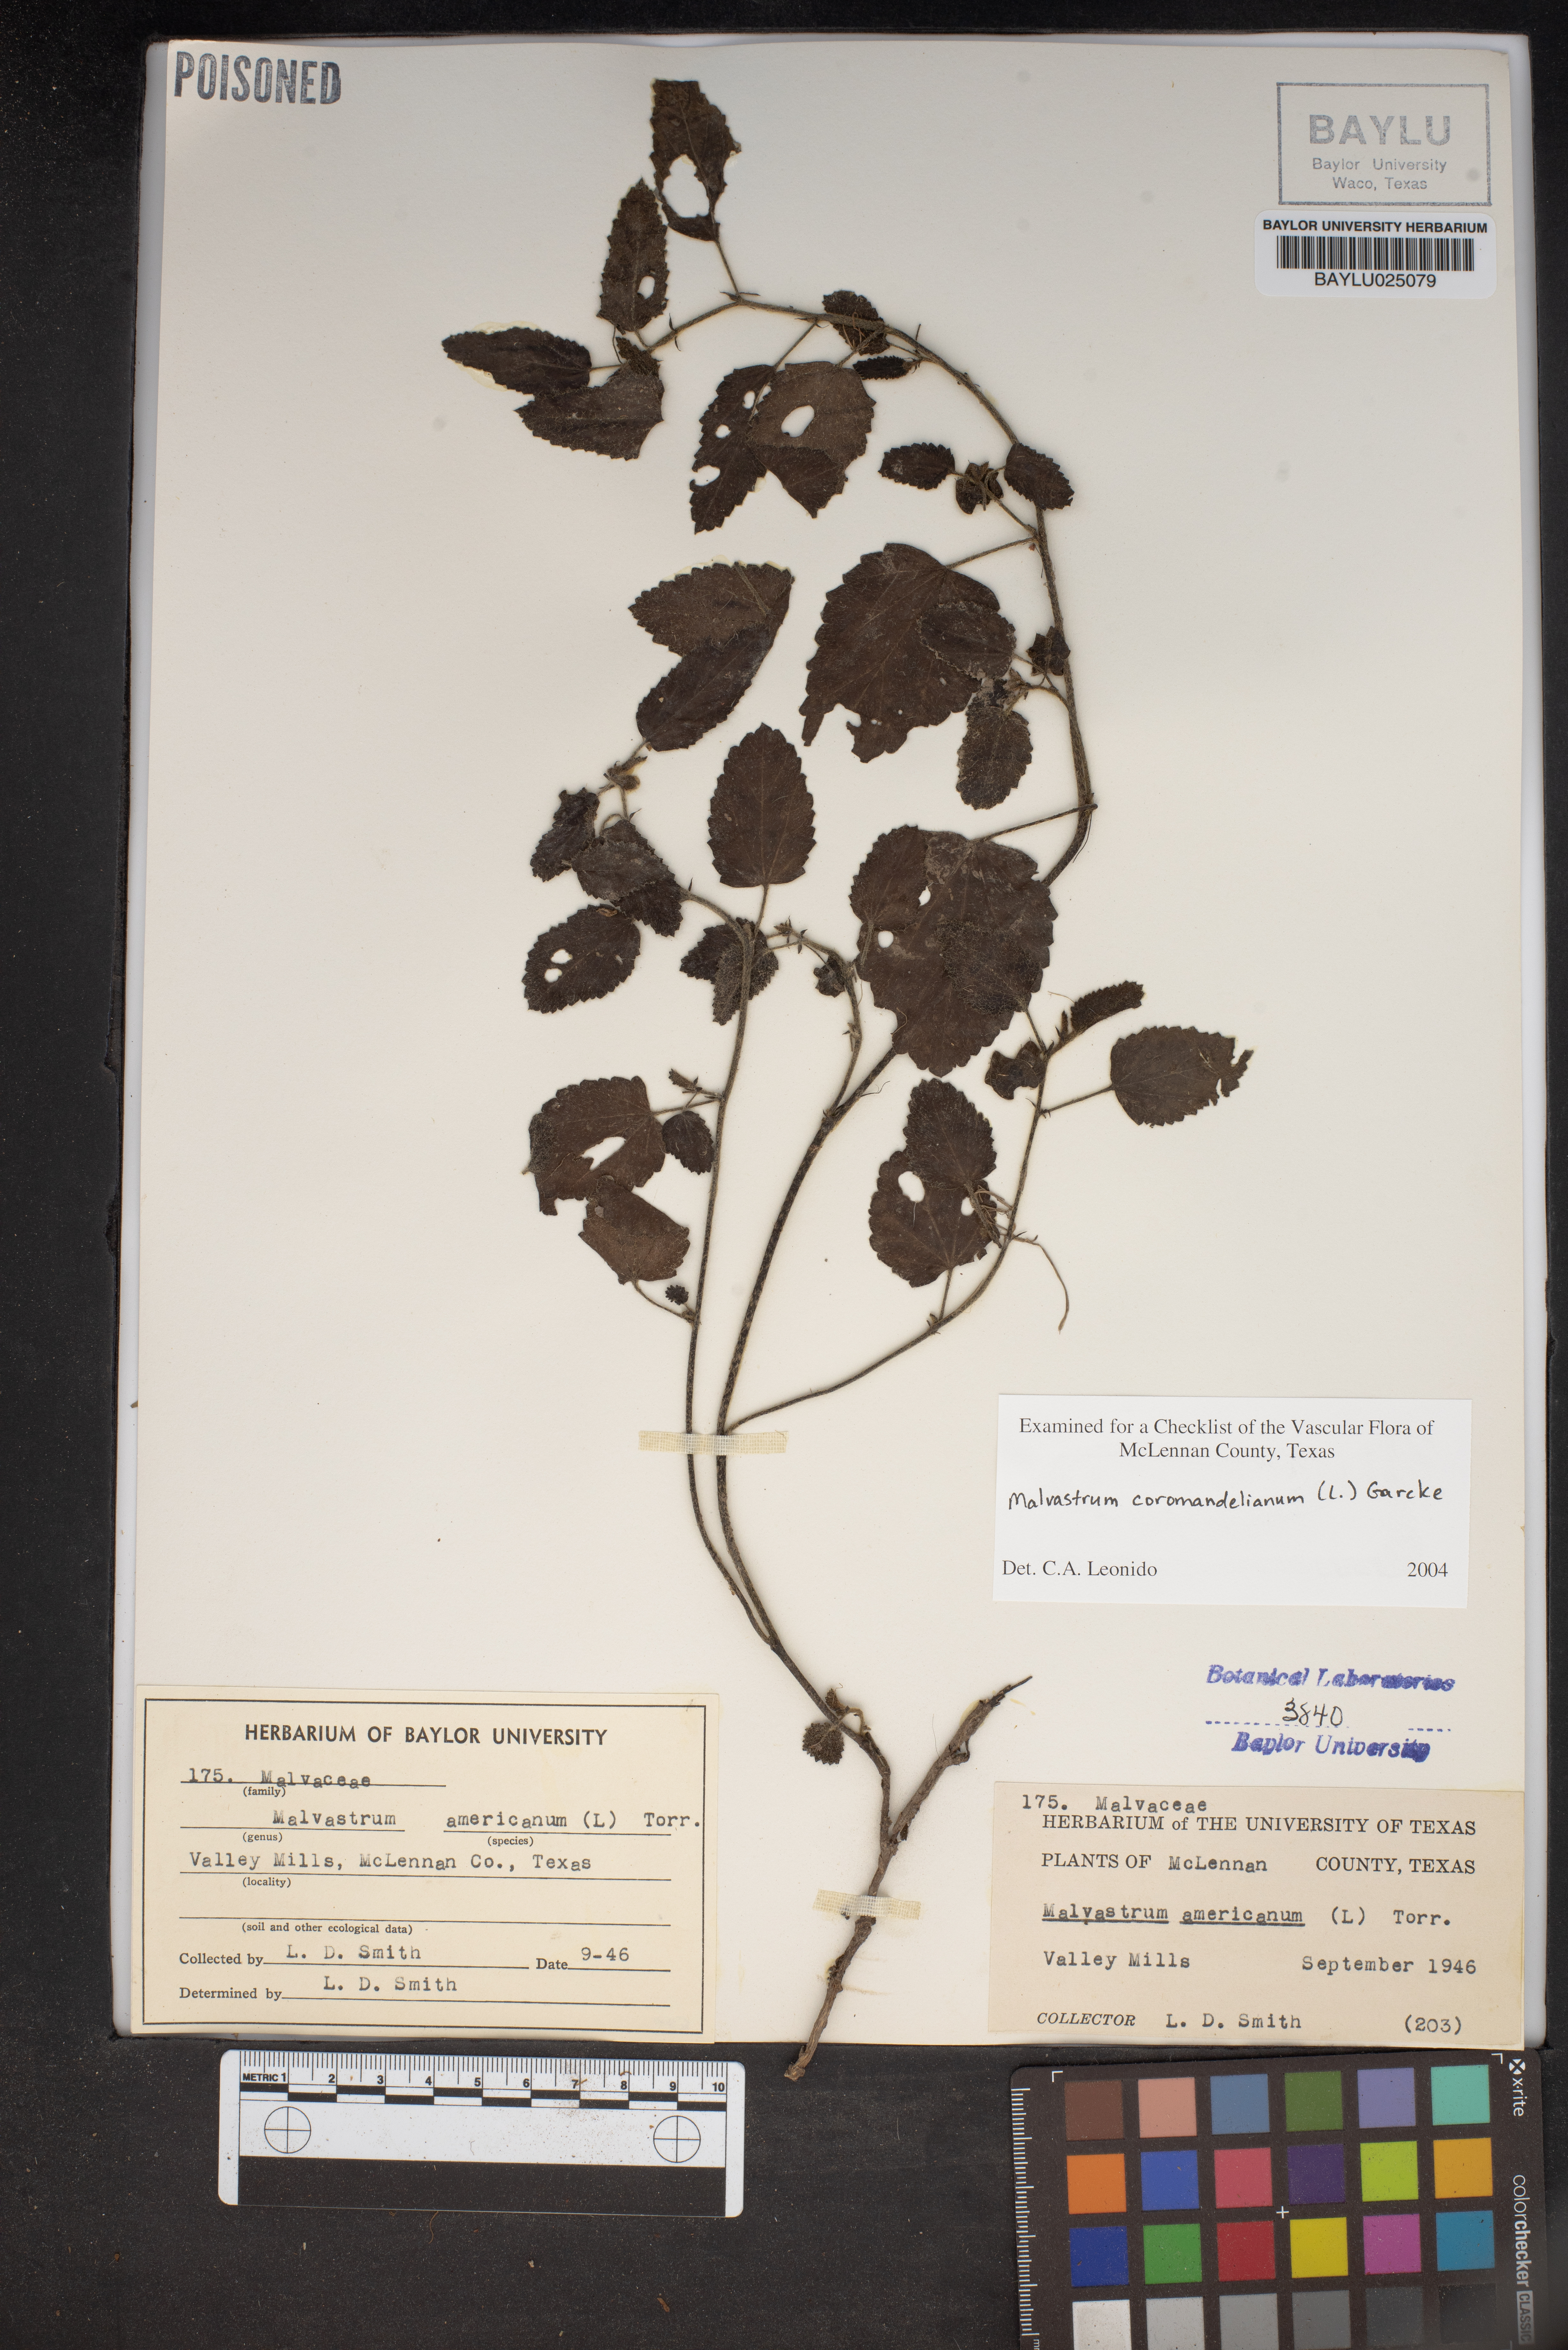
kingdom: Plantae
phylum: Tracheophyta
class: Magnoliopsida
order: Malvales
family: Malvaceae
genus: Malvastrum
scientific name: Malvastrum coromandelianum
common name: Threelobe false mallow
